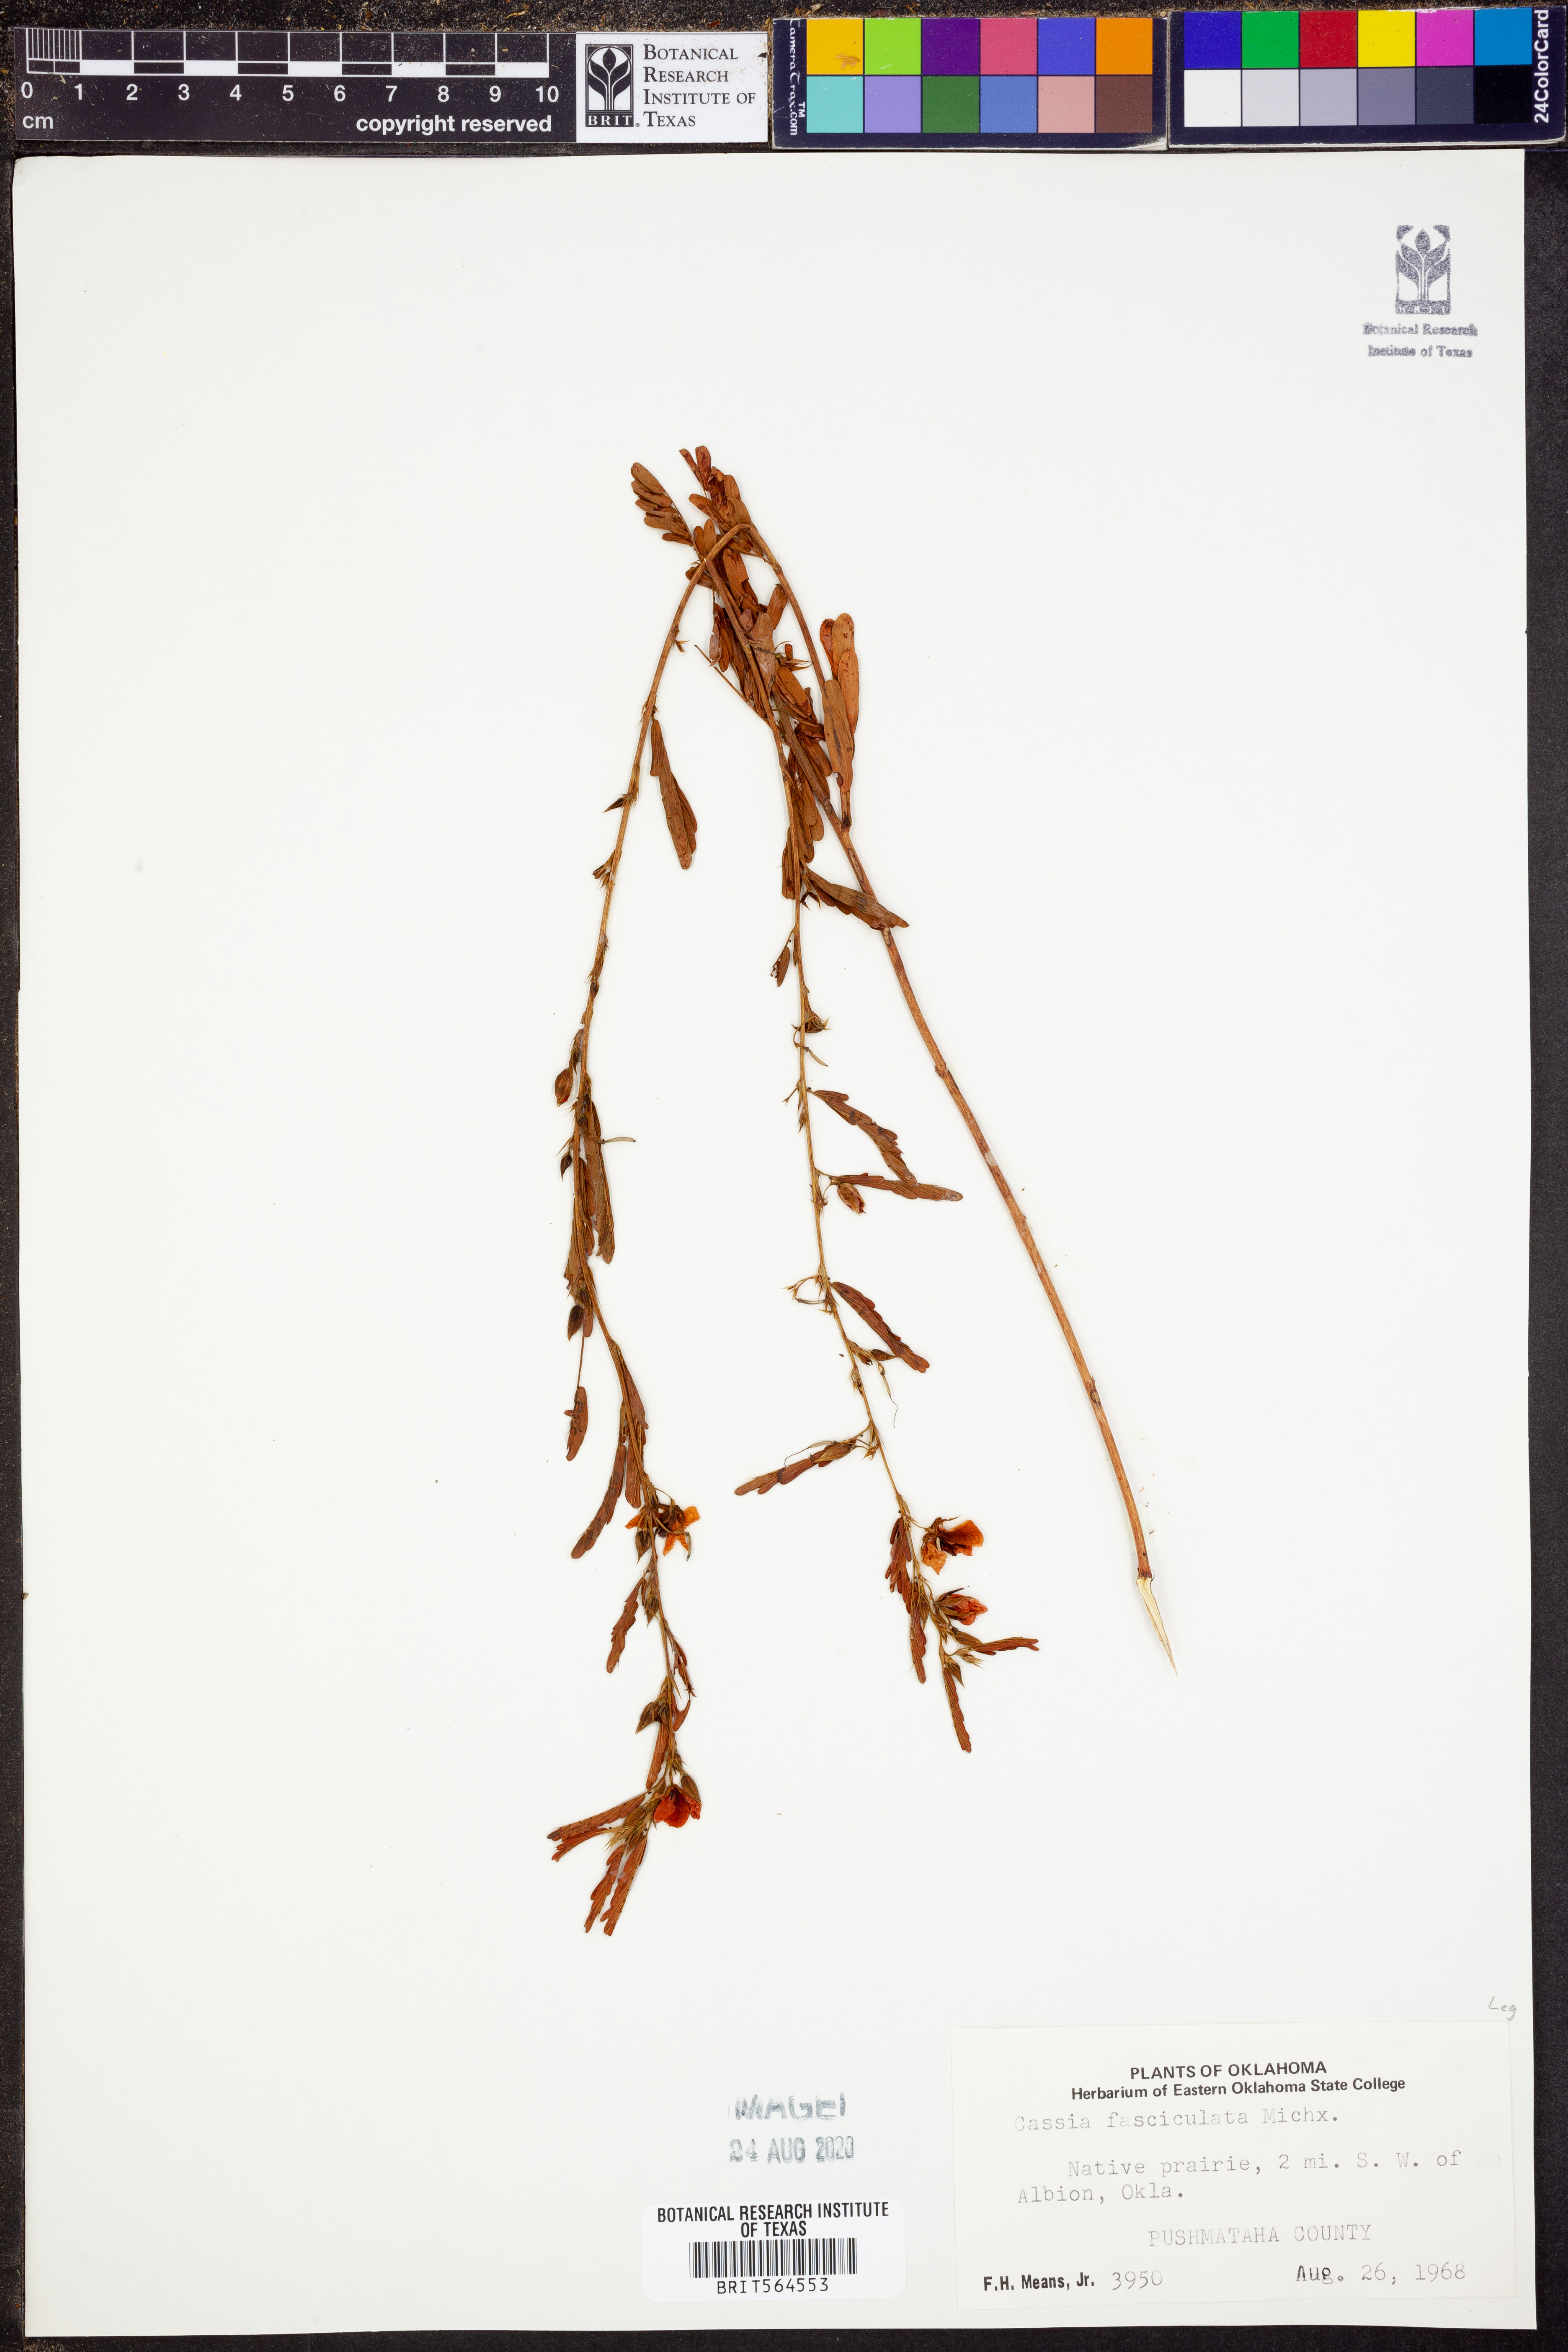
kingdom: Plantae
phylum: Tracheophyta
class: Magnoliopsida
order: Fabales
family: Fabaceae
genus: Chamaecrista
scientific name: Chamaecrista fasciculata
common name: Golden cassia
